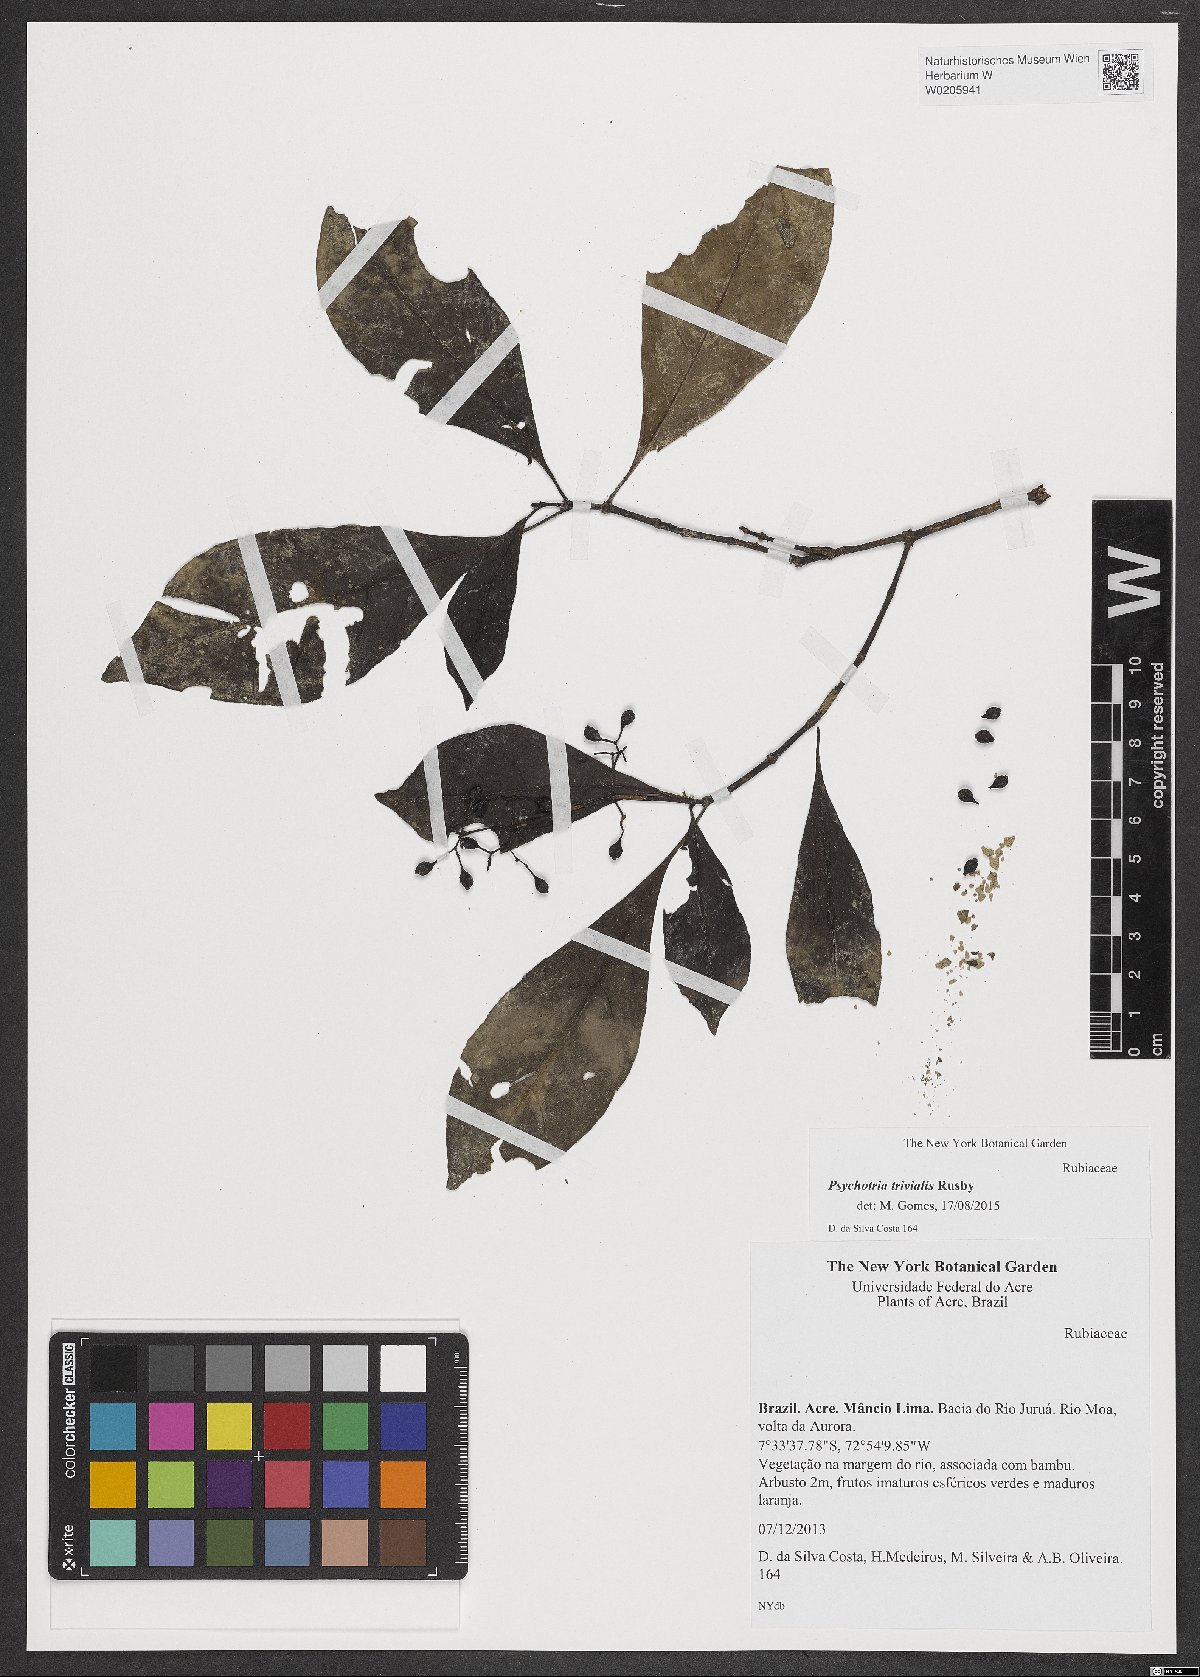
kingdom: Plantae
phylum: Tracheophyta
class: Magnoliopsida
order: Gentianales
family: Rubiaceae
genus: Psychotria
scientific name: Psychotria trivialis
